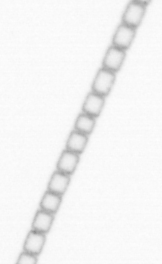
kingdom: Chromista
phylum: Ochrophyta
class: Bacillariophyceae
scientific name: Bacillariophyceae
